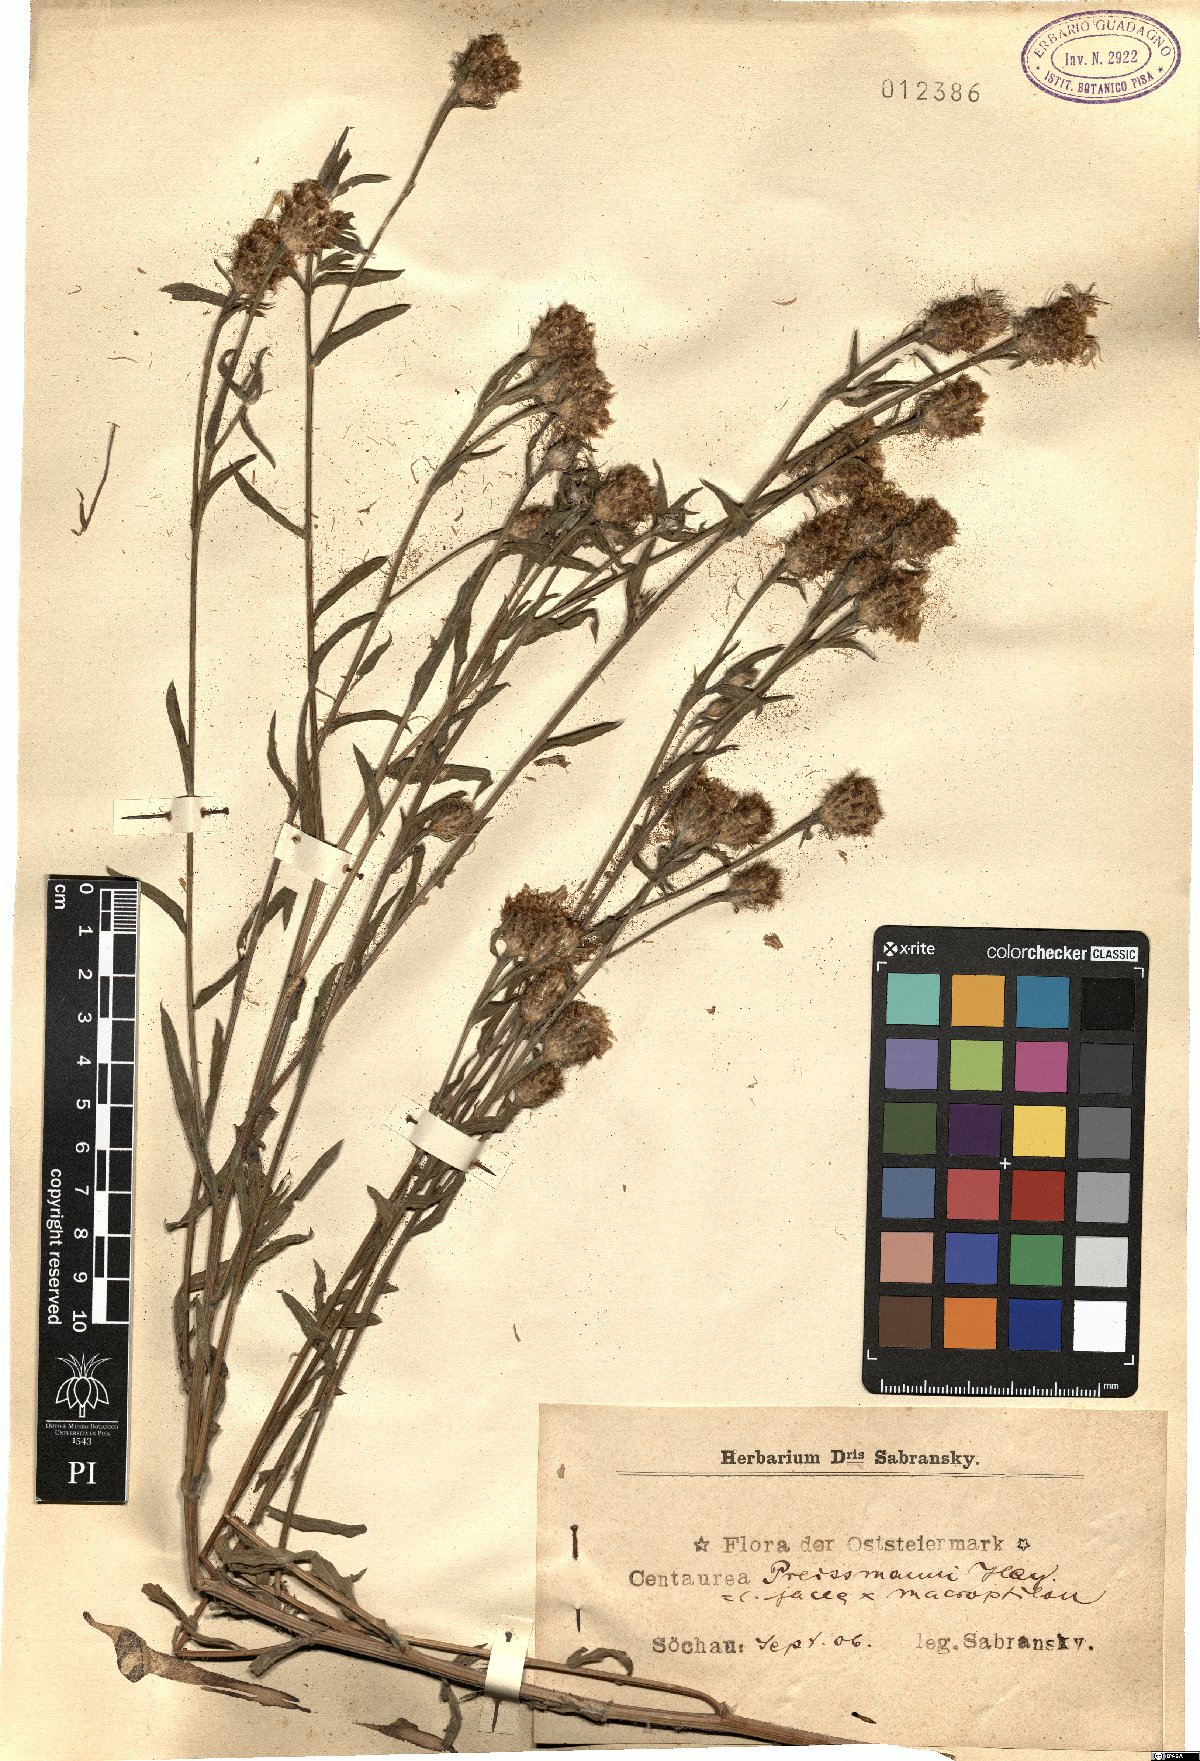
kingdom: Plantae
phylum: Tracheophyta
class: Magnoliopsida
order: Asterales
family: Asteraceae
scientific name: Asteraceae
